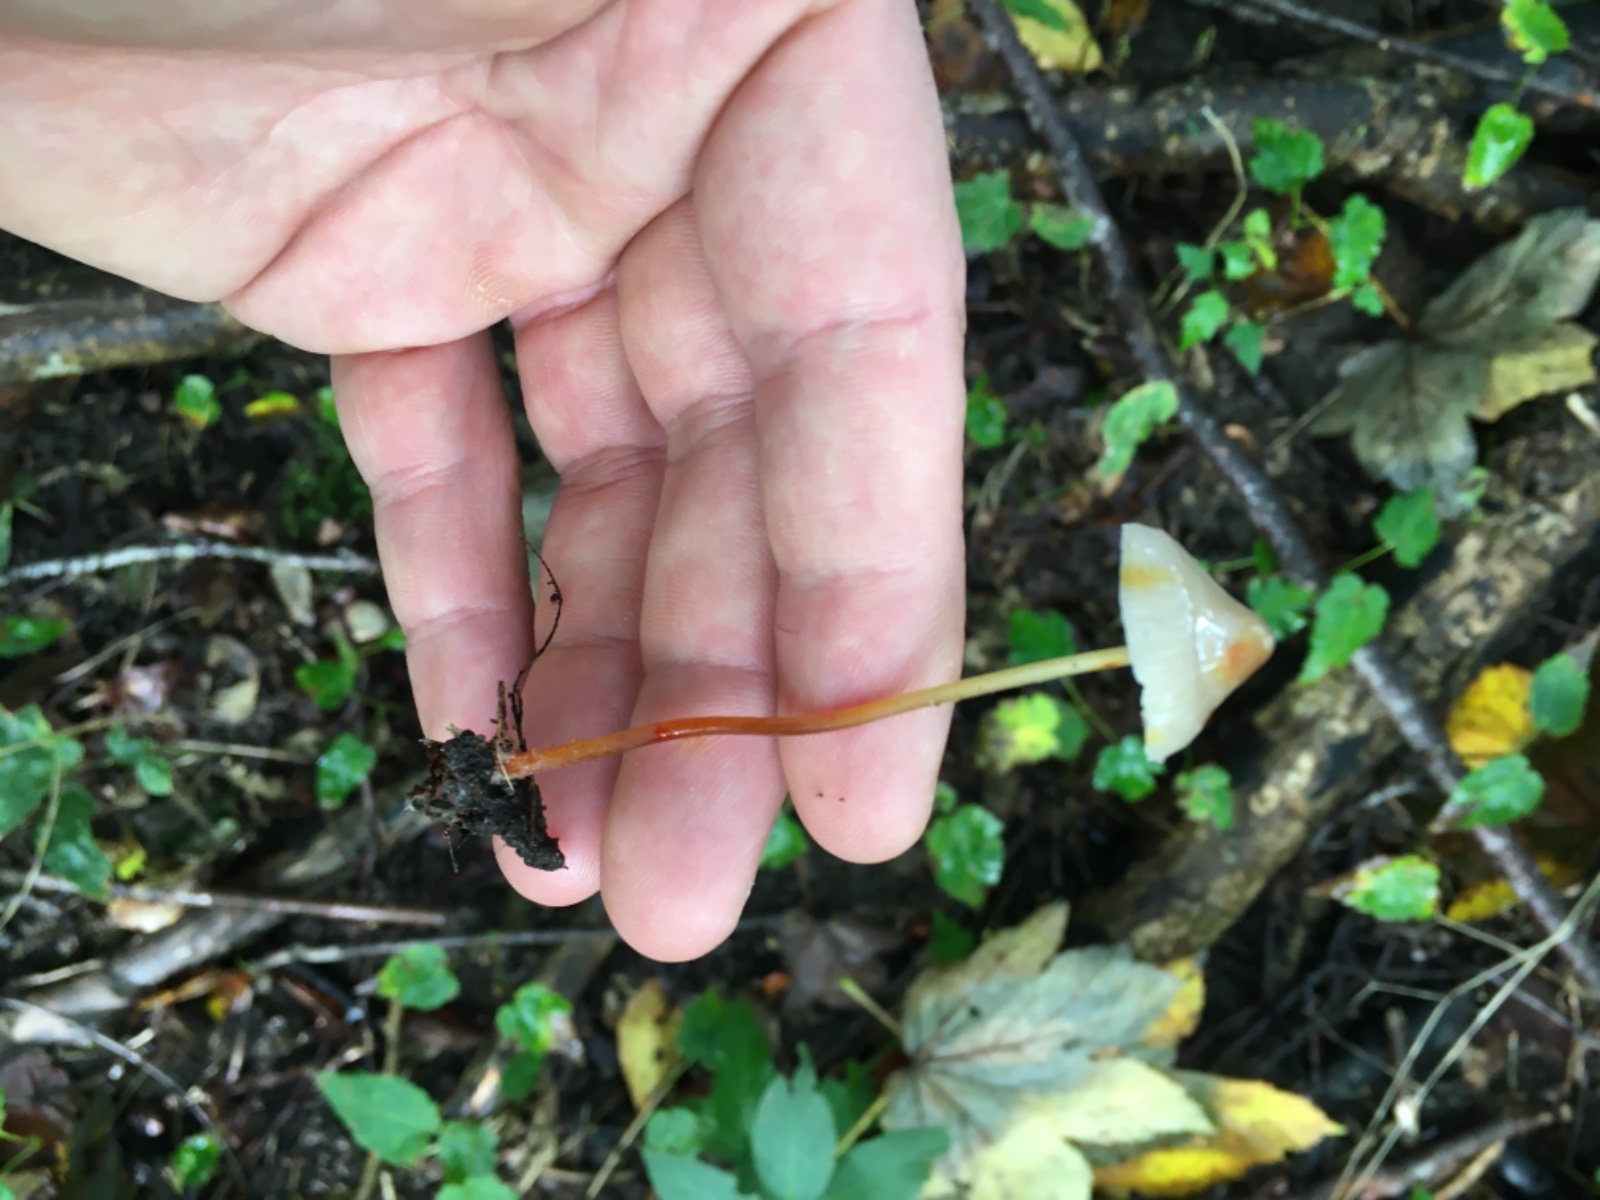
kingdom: Fungi
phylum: Basidiomycota
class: Agaricomycetes
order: Agaricales
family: Mycenaceae
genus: Mycena
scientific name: Mycena crocata
